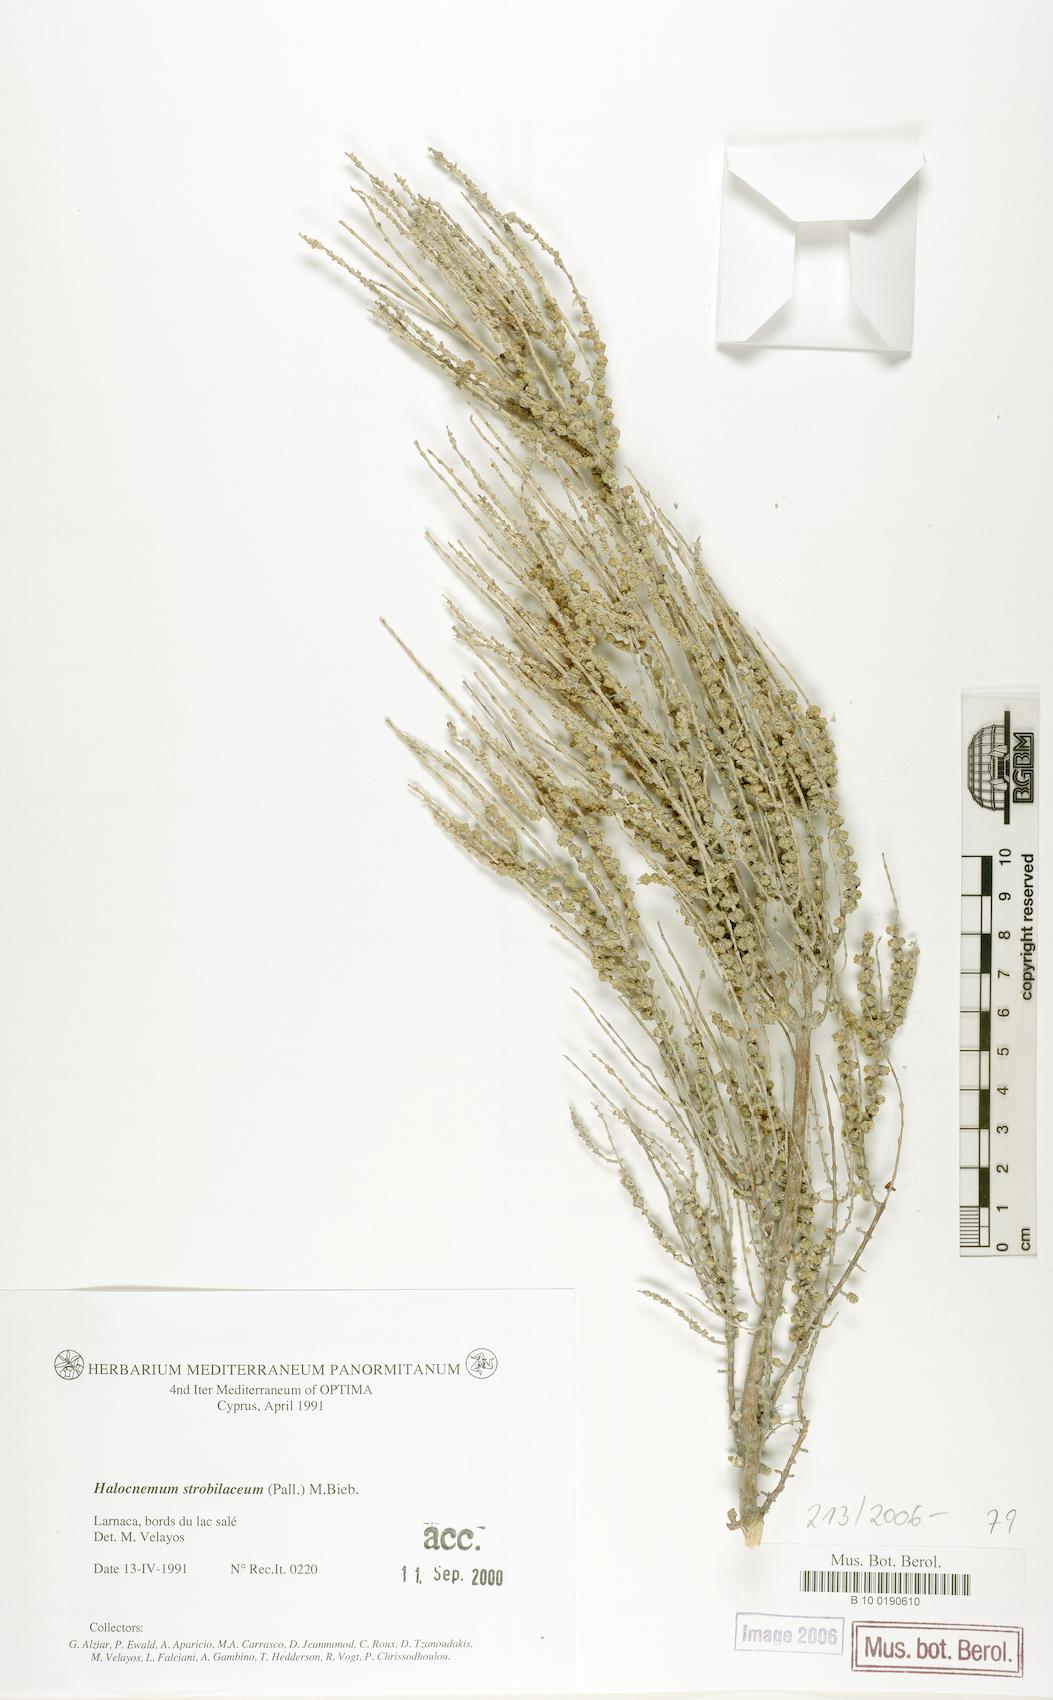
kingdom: Plantae
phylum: Tracheophyta
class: Magnoliopsida
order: Caryophyllales
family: Amaranthaceae
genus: Halocnemum
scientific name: Halocnemum strobilaceum
